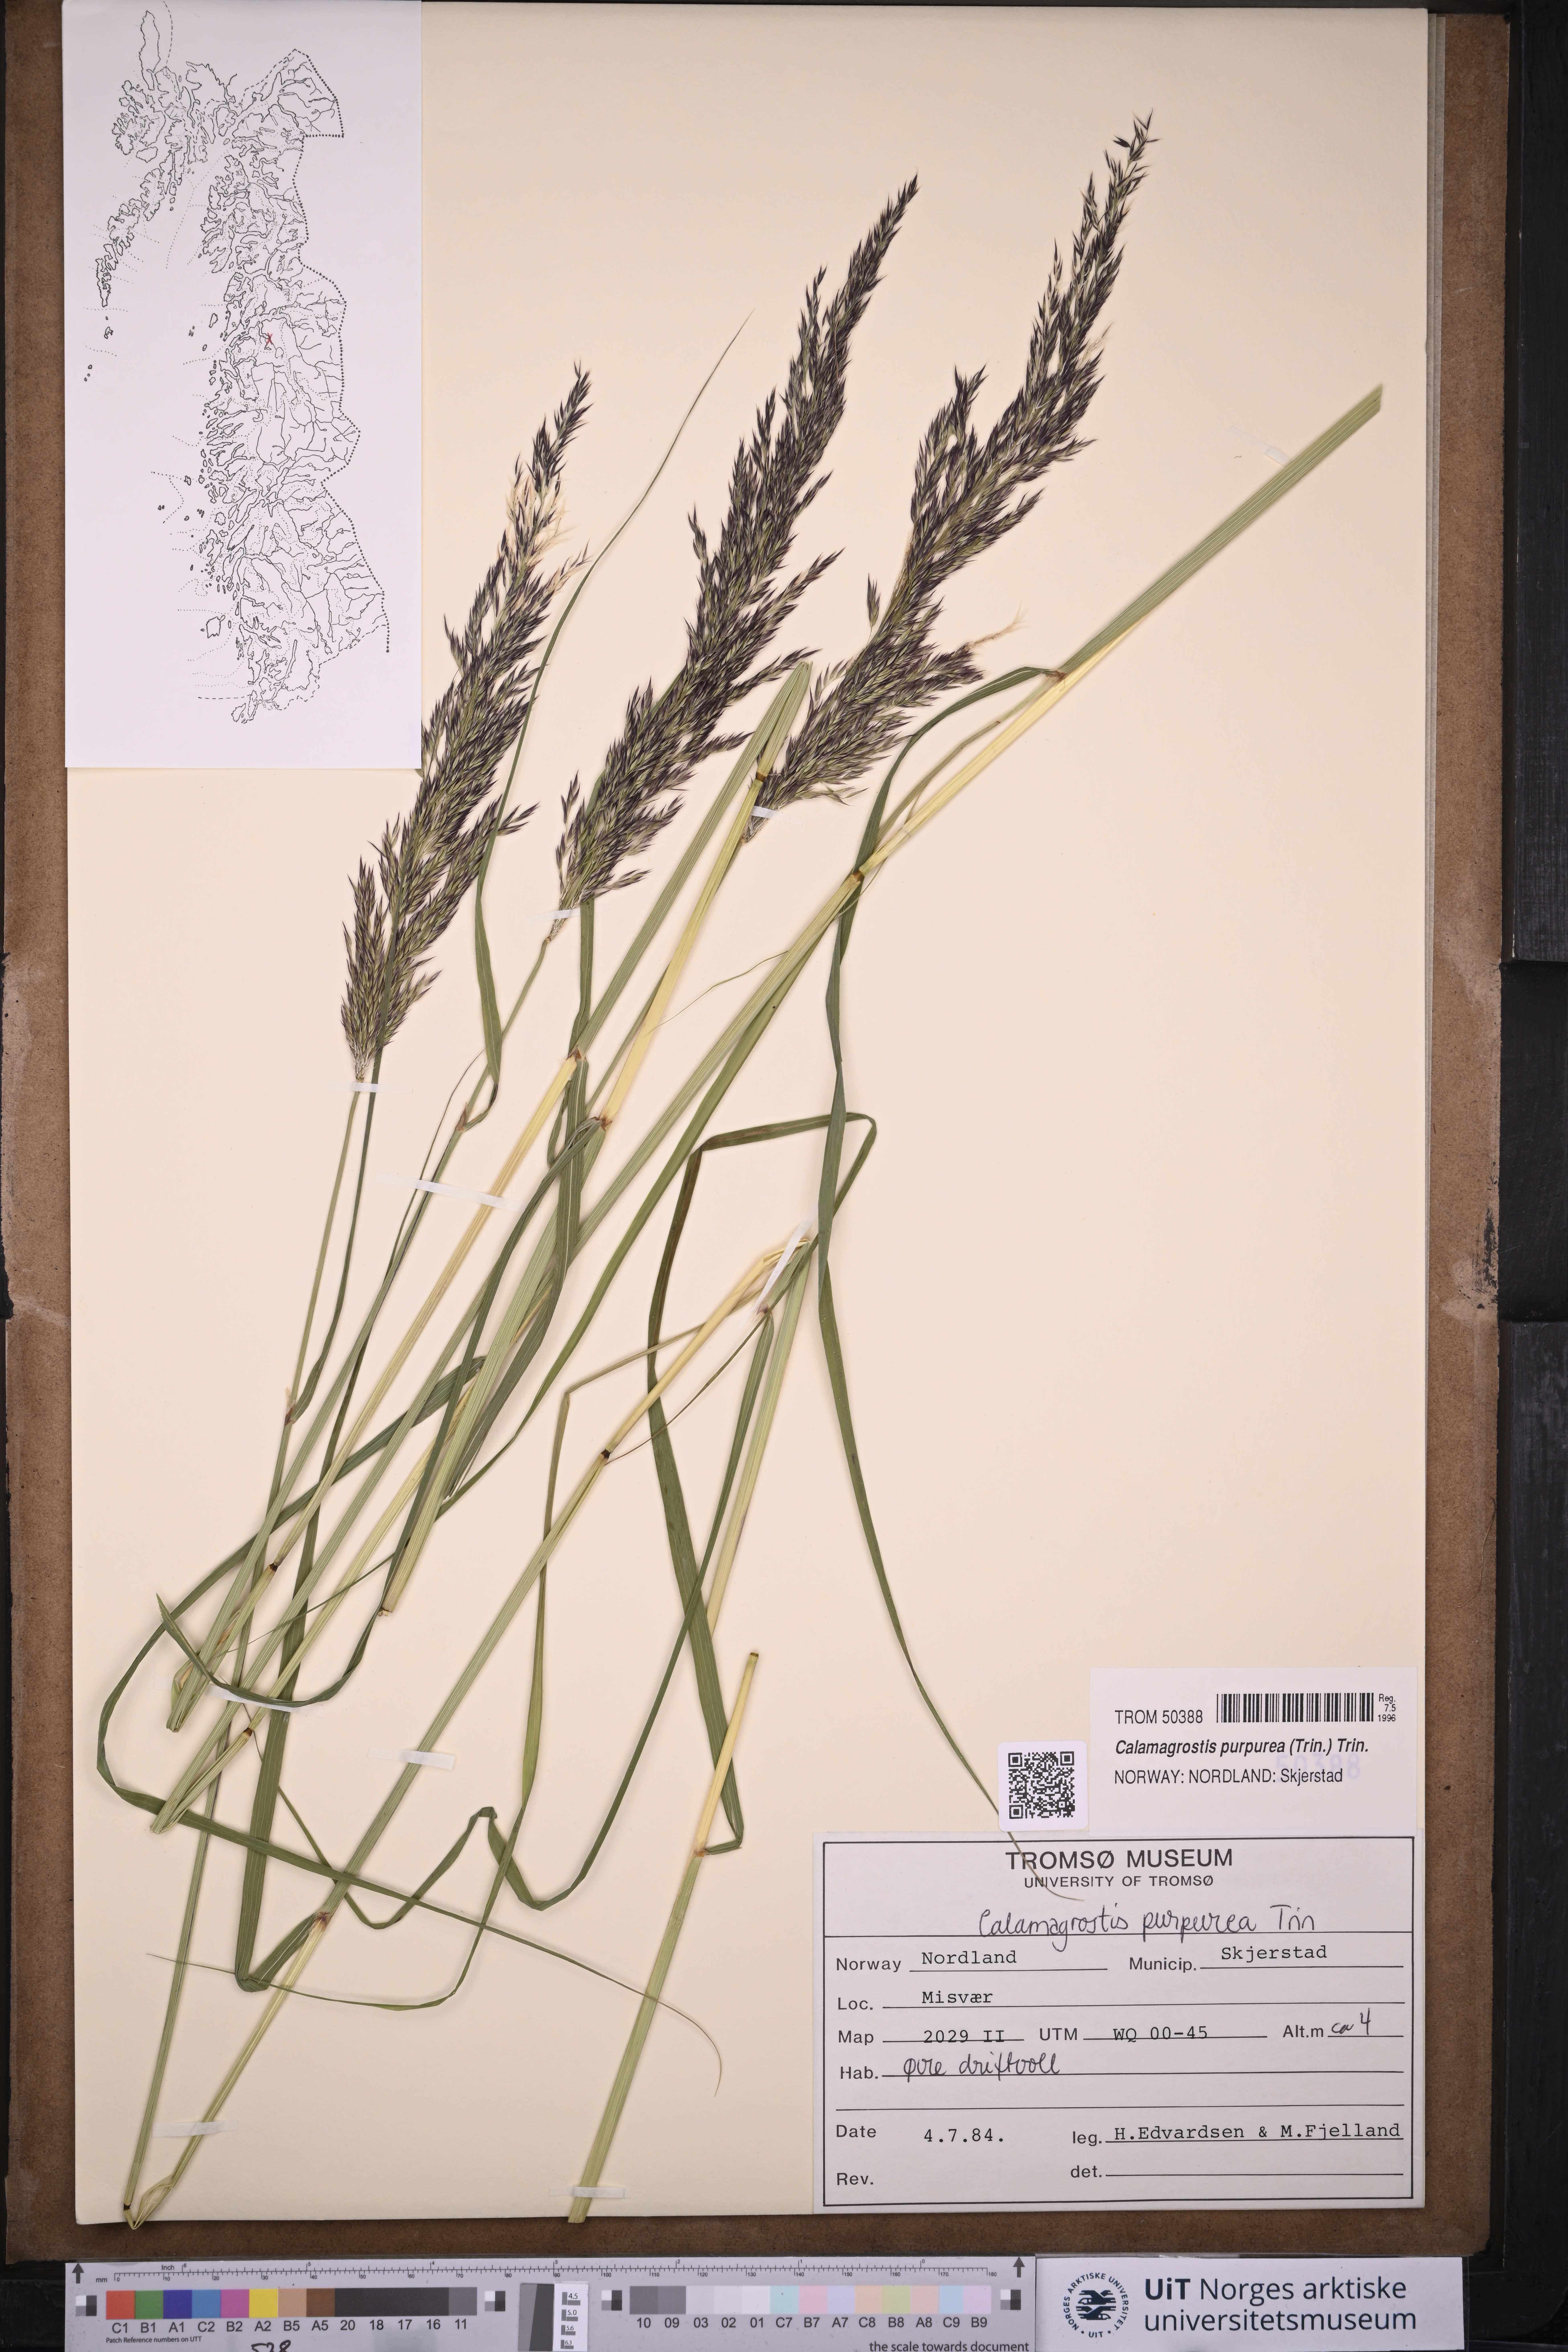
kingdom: Plantae
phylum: Tracheophyta
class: Liliopsida
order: Poales
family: Poaceae
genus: Calamagrostis
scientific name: Calamagrostis purpurea
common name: Scandinavian small-reed
